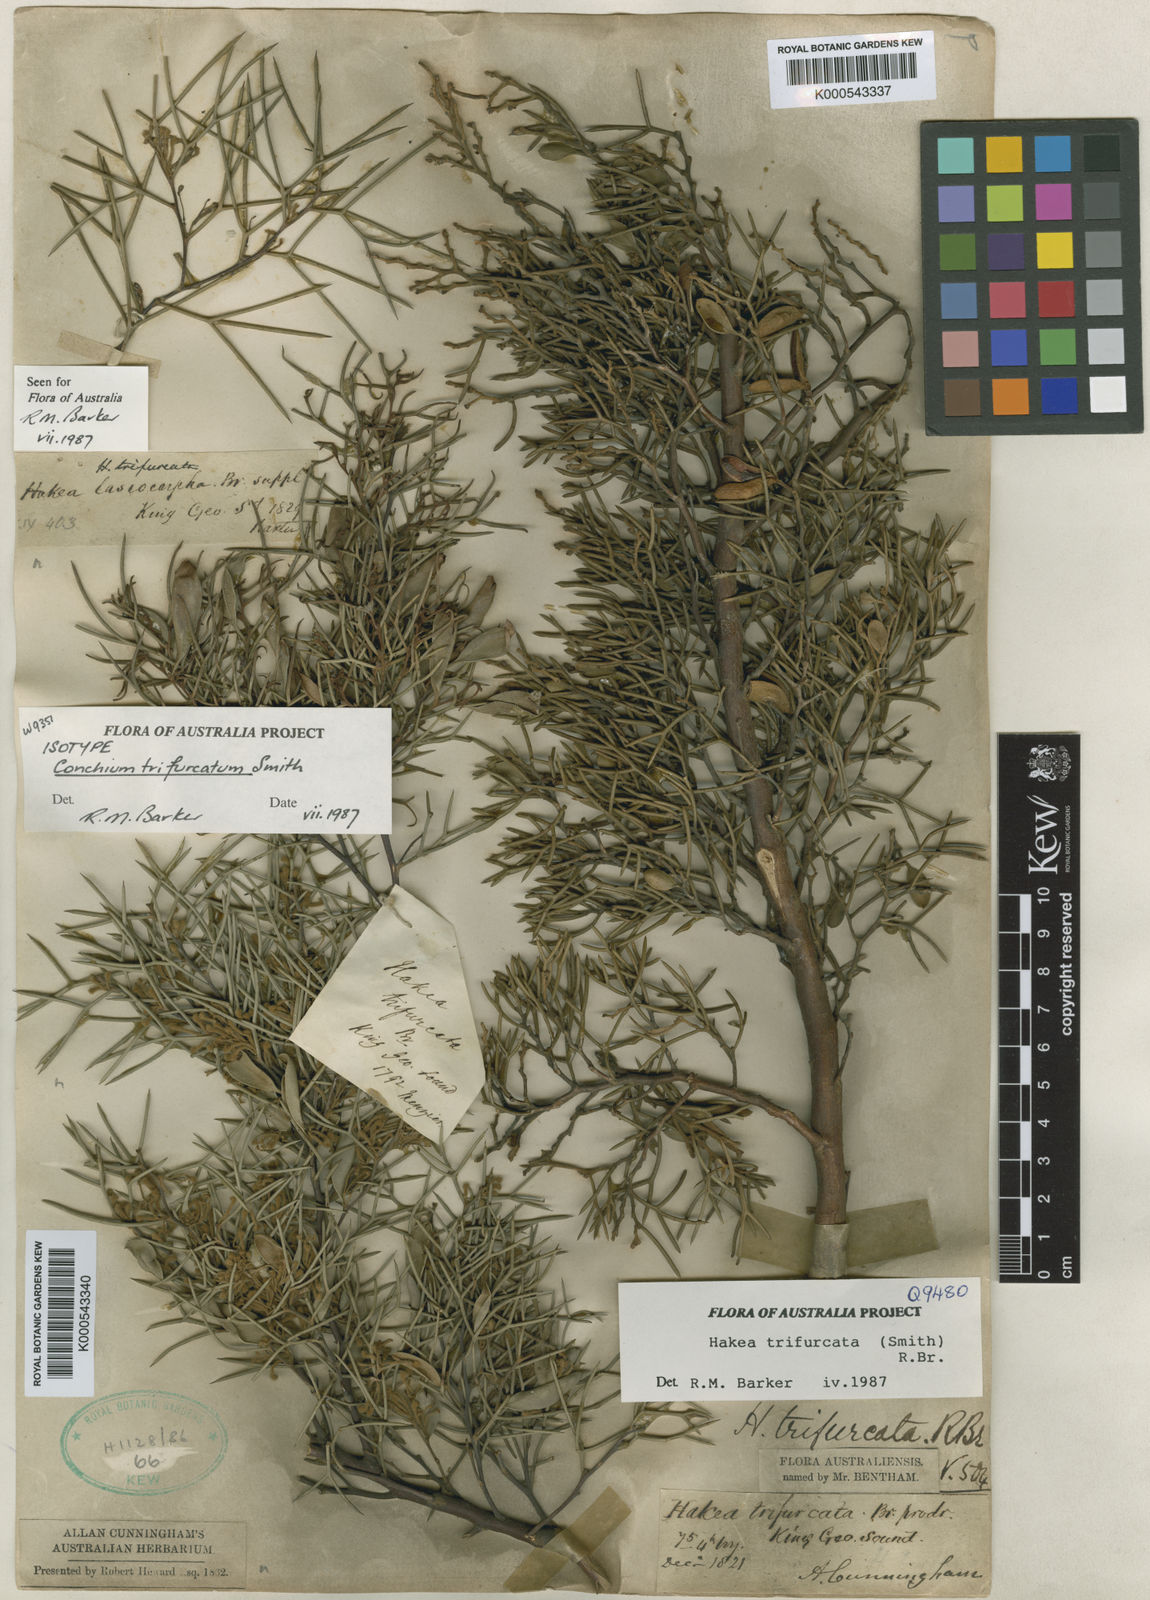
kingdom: Plantae
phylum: Tracheophyta
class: Magnoliopsida
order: Proteales
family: Proteaceae
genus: Hakea
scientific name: Hakea trifurcata
